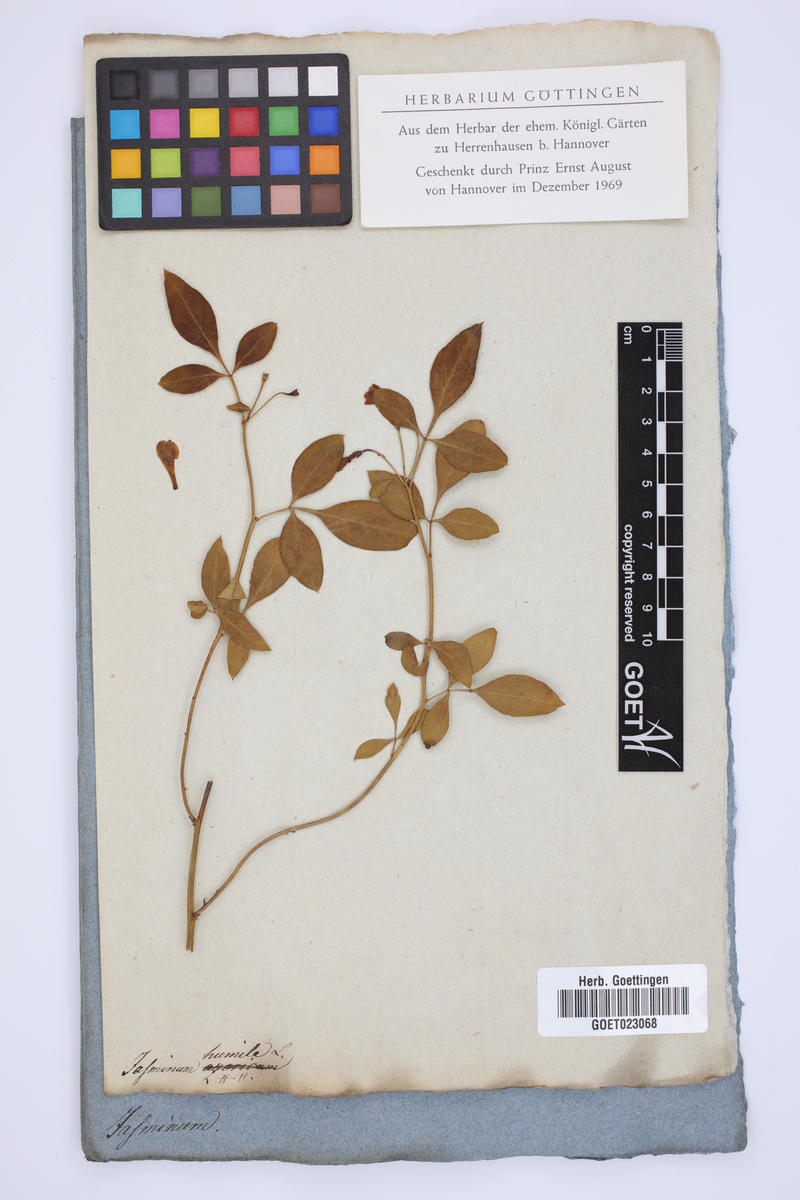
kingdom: Plantae
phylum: Tracheophyta
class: Magnoliopsida
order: Lamiales
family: Oleaceae
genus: Chrysojasminum
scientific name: Chrysojasminum humile
